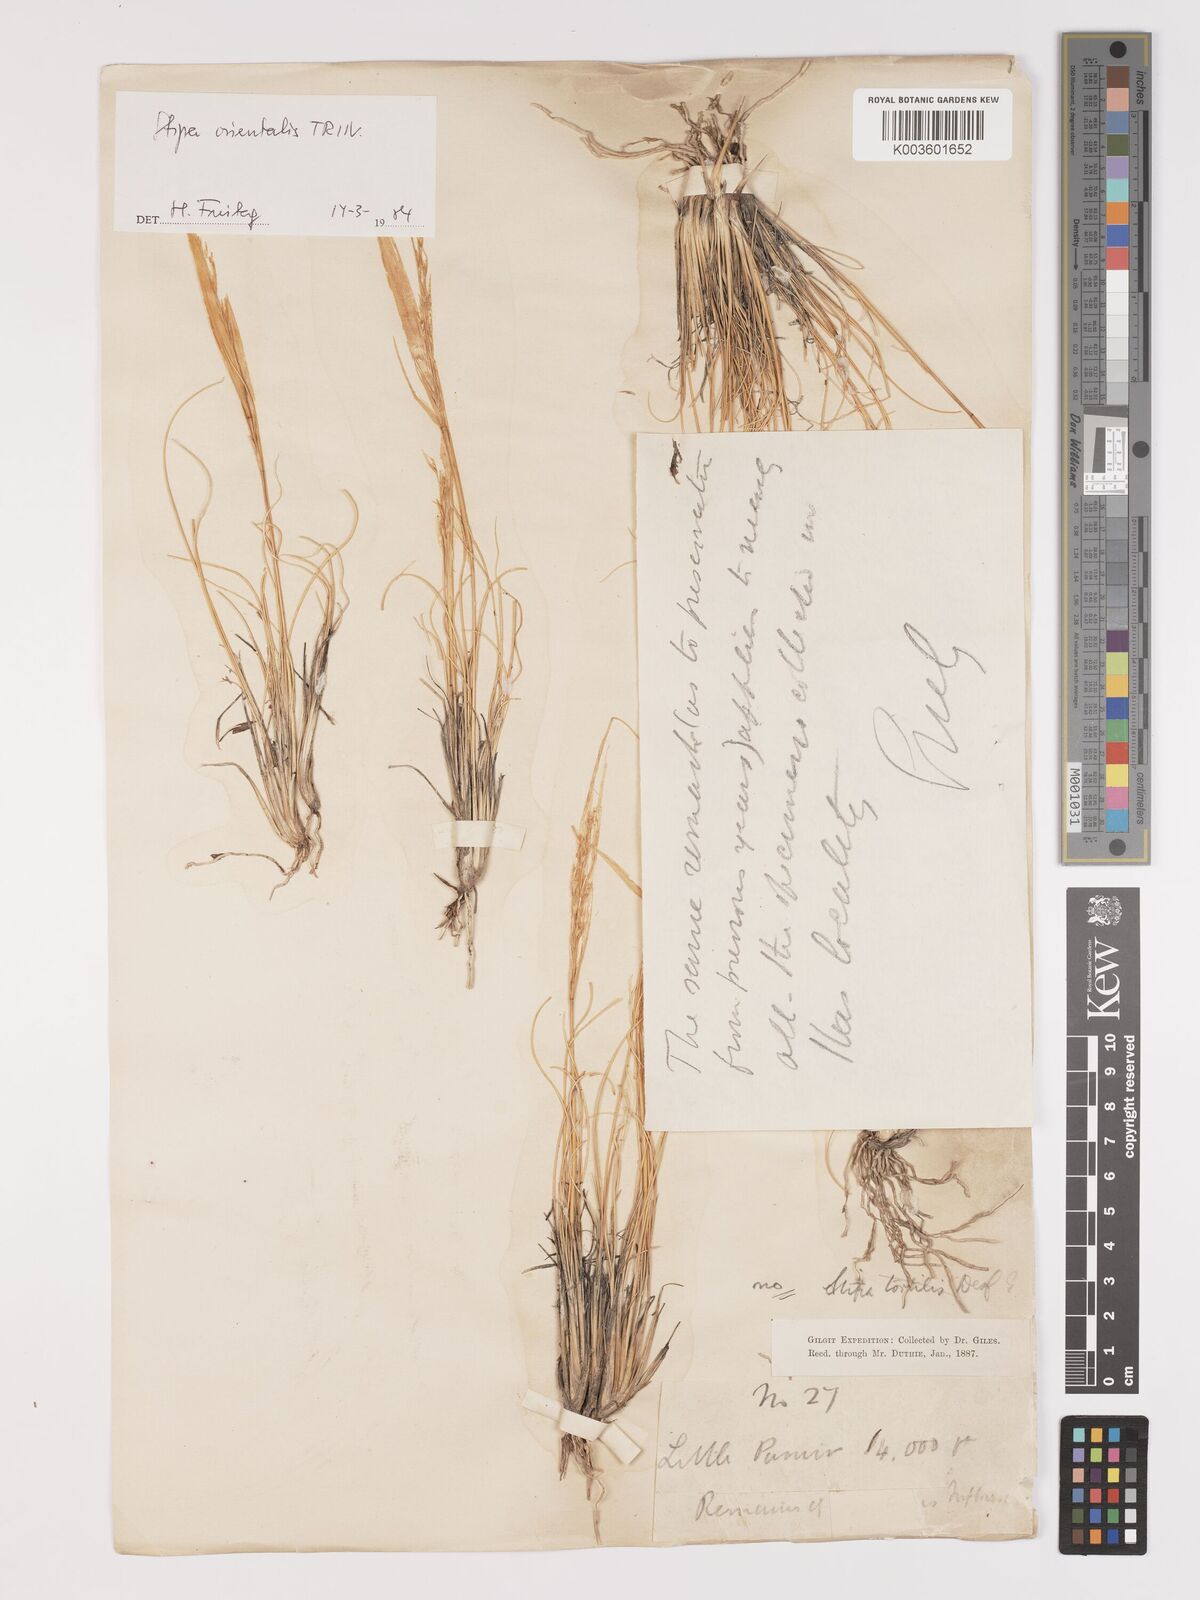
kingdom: Plantae
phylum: Tracheophyta
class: Liliopsida
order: Poales
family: Poaceae
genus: Stipa
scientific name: Stipa orientalis
